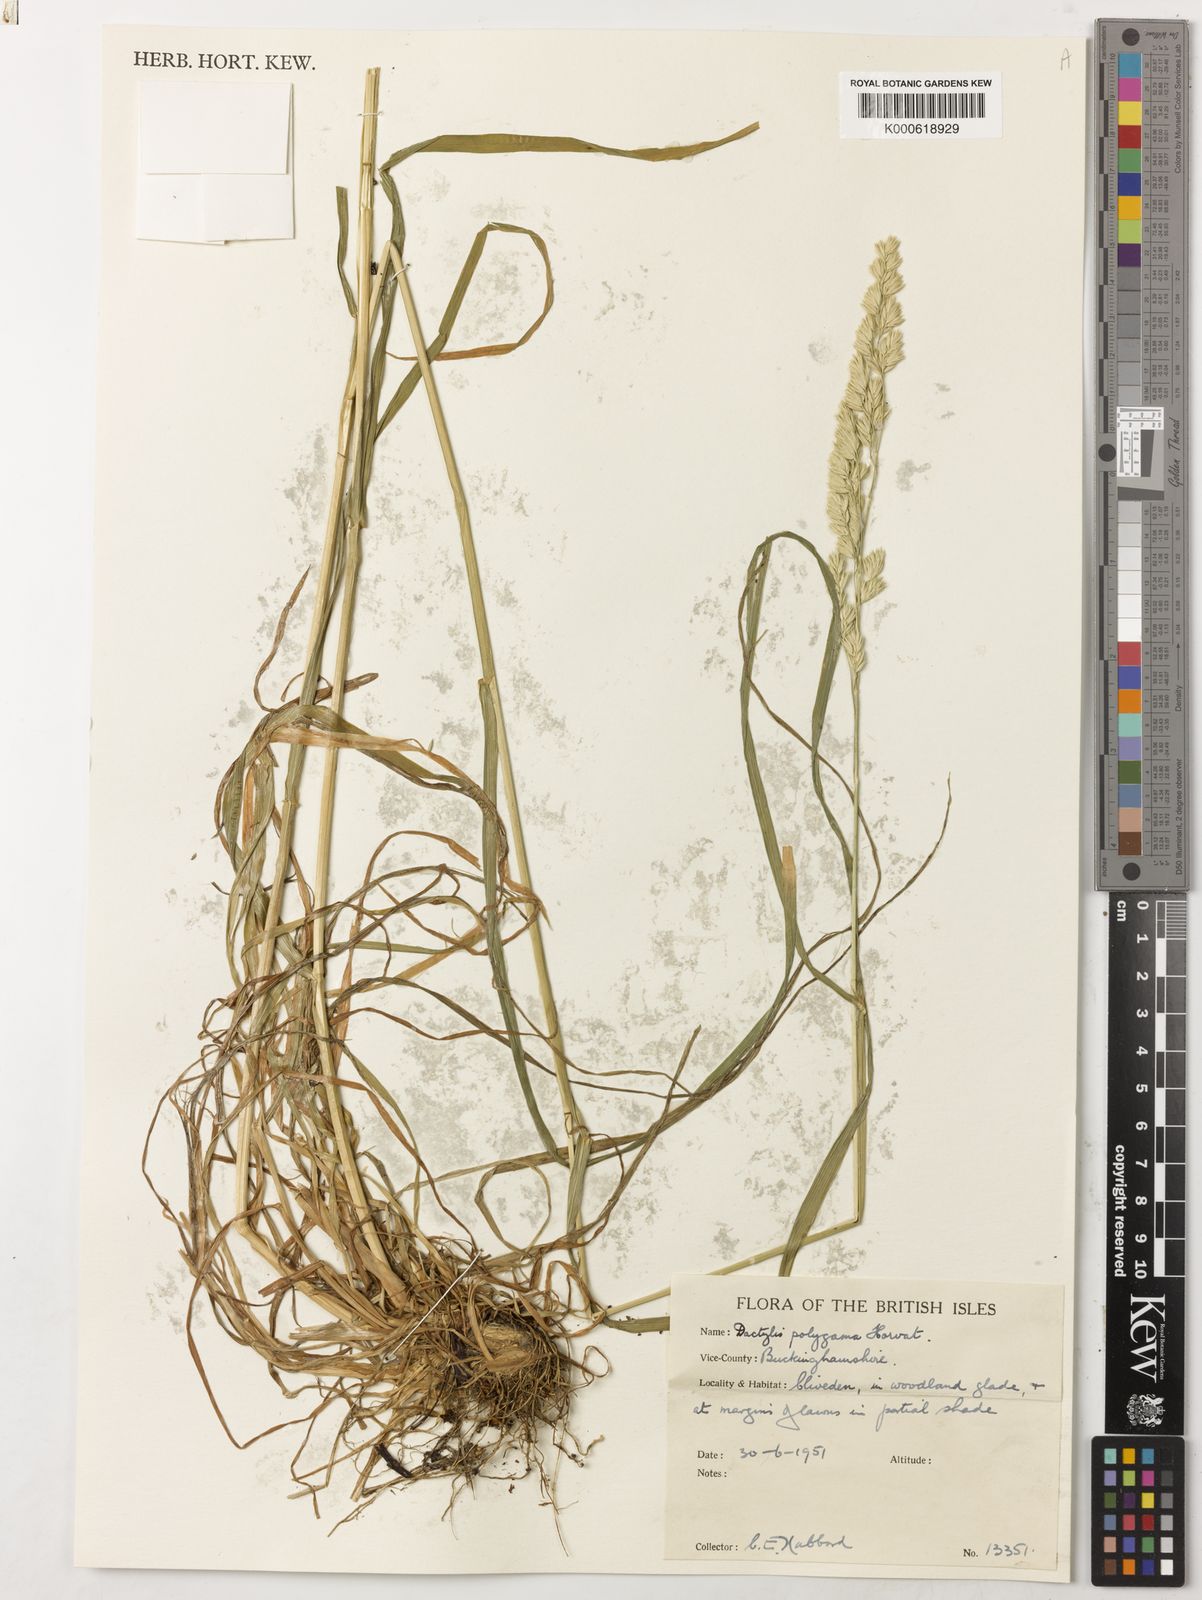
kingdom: Plantae
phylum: Tracheophyta
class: Liliopsida
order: Poales
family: Poaceae
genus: Dactylis
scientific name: Dactylis glomerata
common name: Orchardgrass
